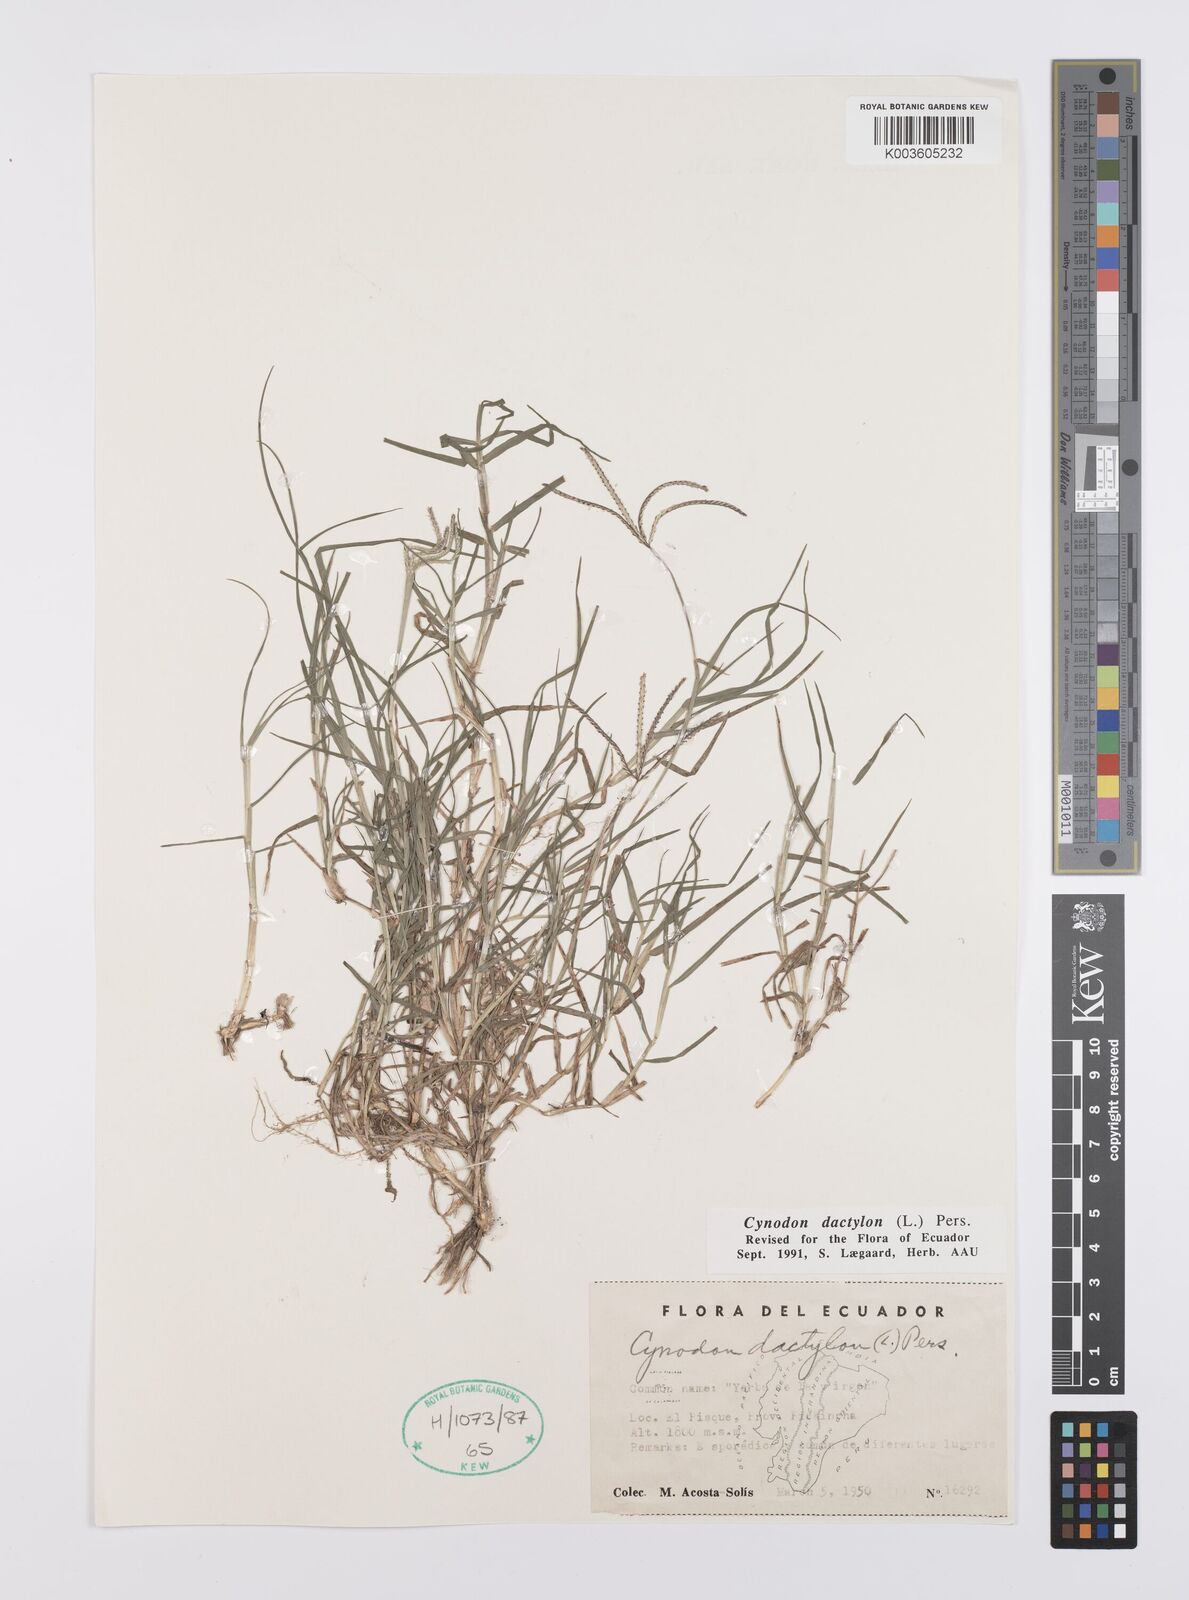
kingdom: Plantae
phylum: Tracheophyta
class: Liliopsida
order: Poales
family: Poaceae
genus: Cynodon
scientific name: Cynodon dactylon
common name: Bermuda grass
